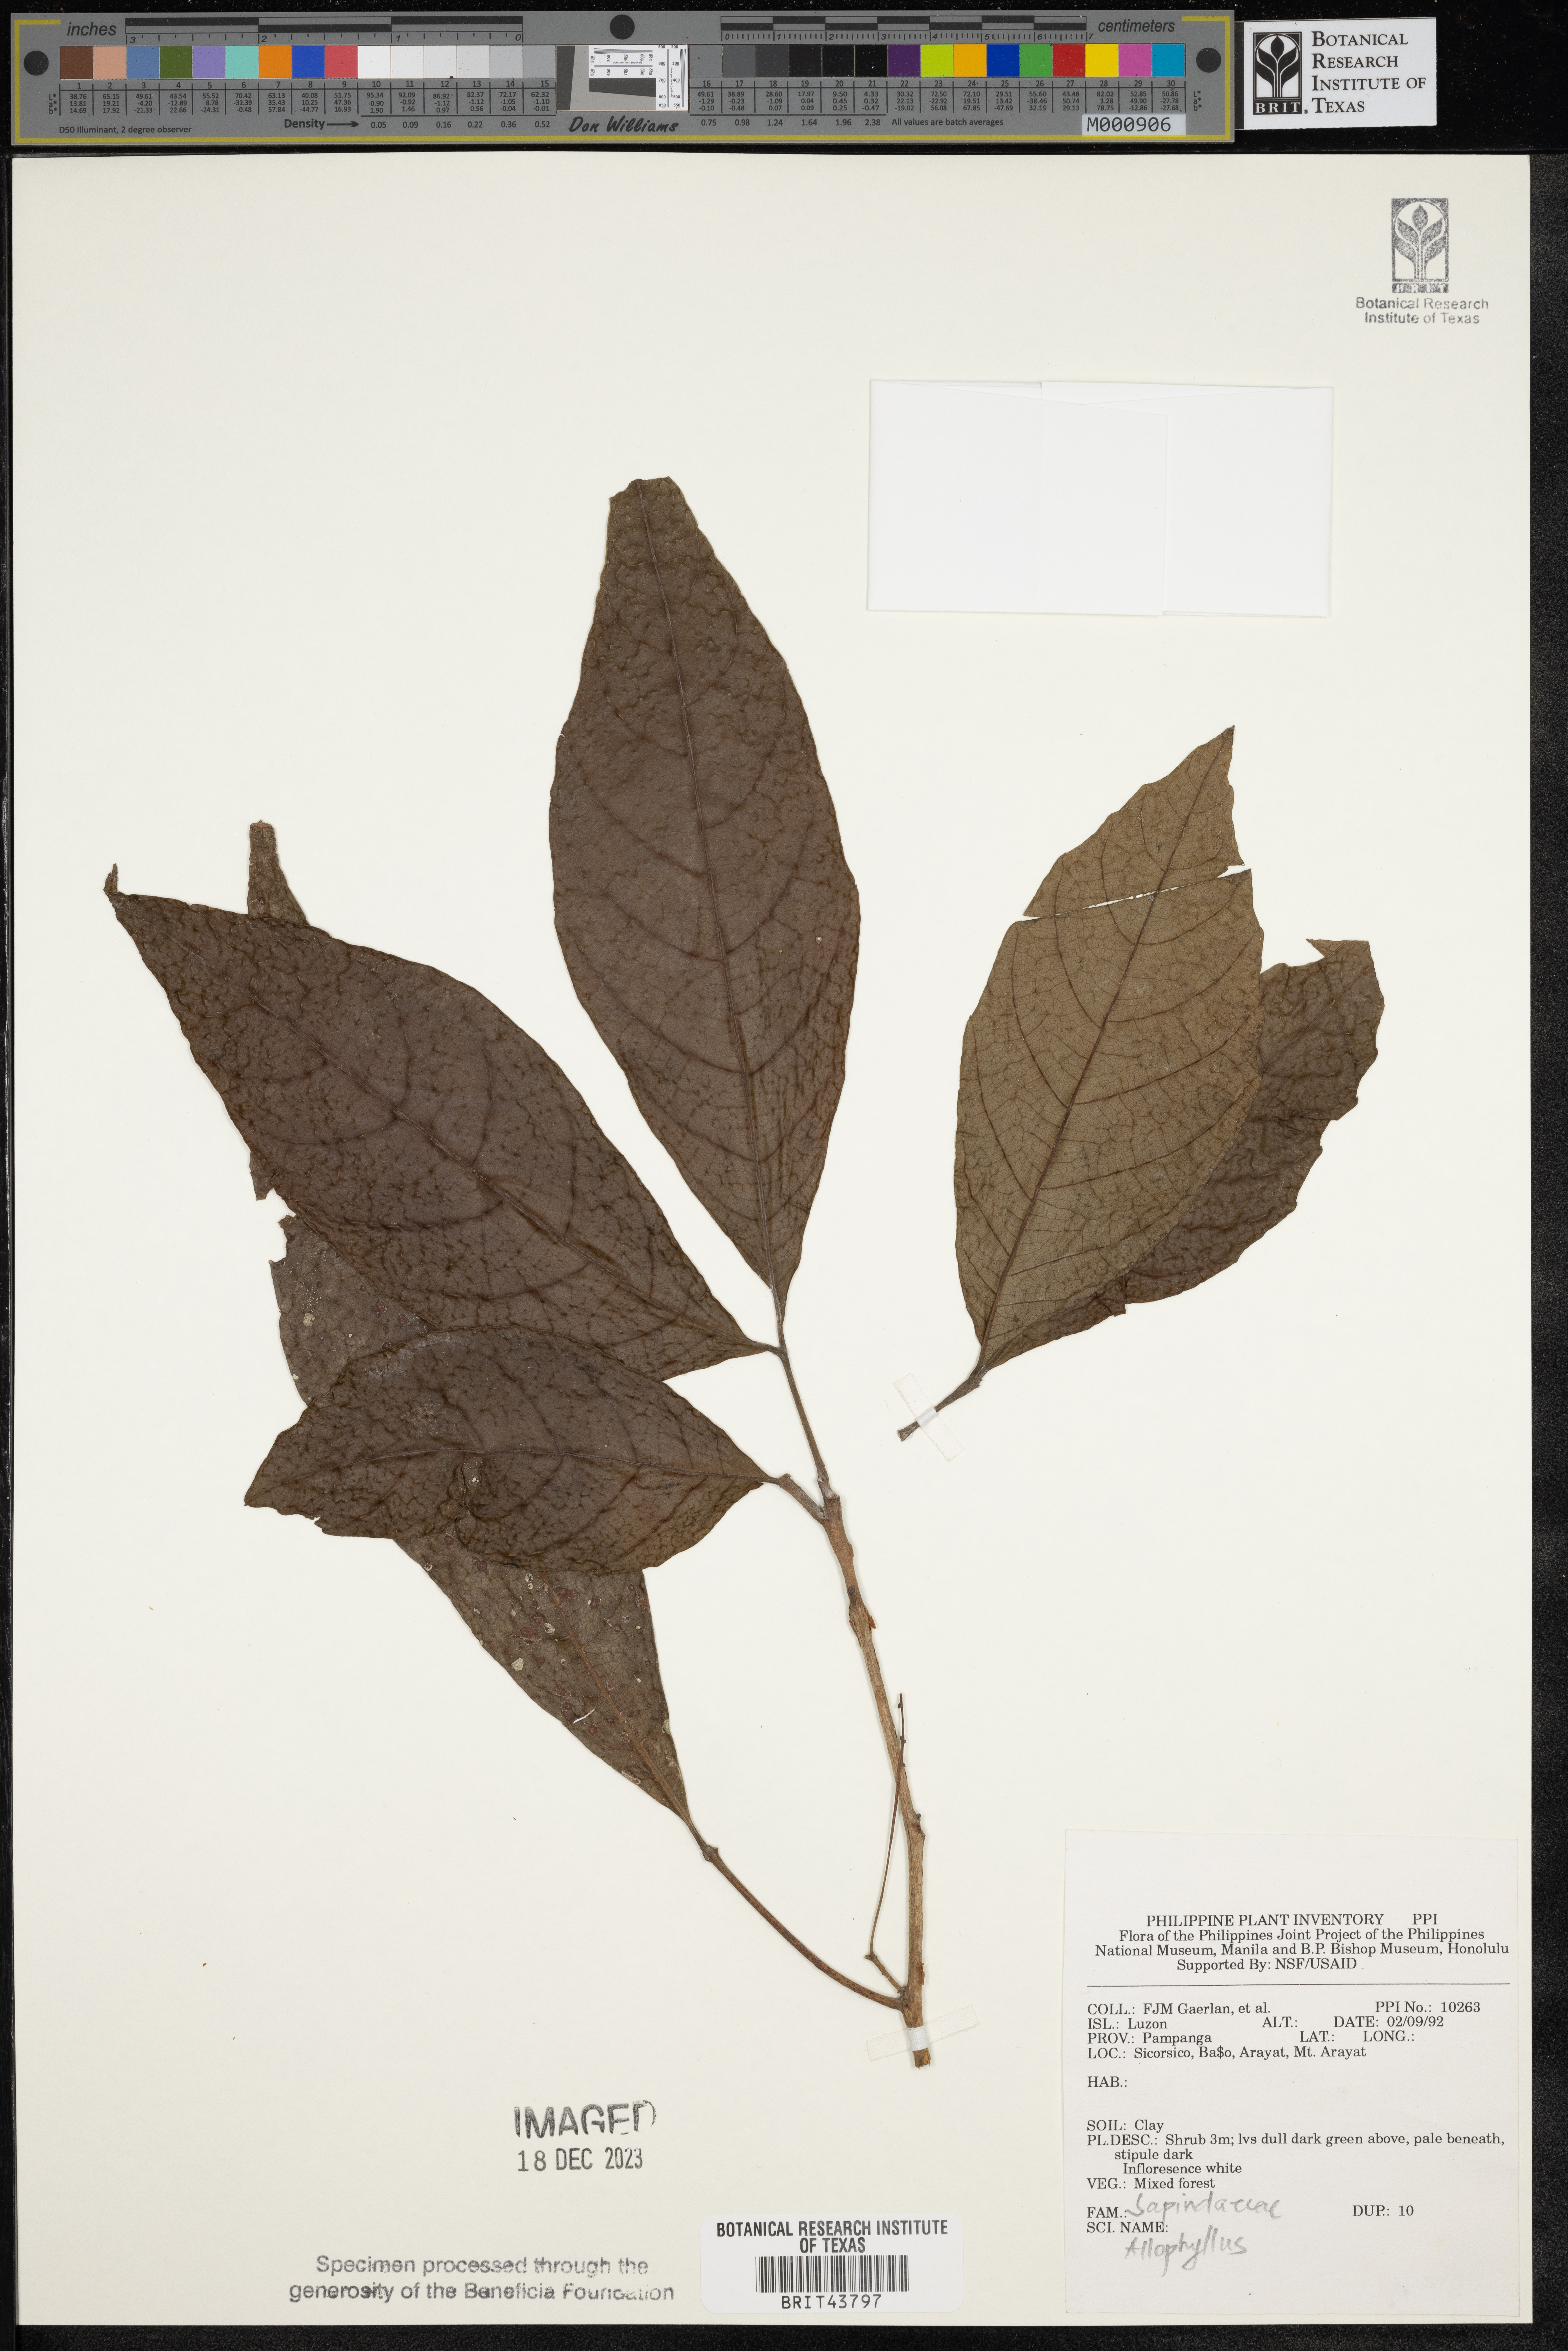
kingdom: Plantae
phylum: Tracheophyta
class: Magnoliopsida
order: Sapindales
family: Sapindaceae
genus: Allophylus
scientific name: Allophylus
